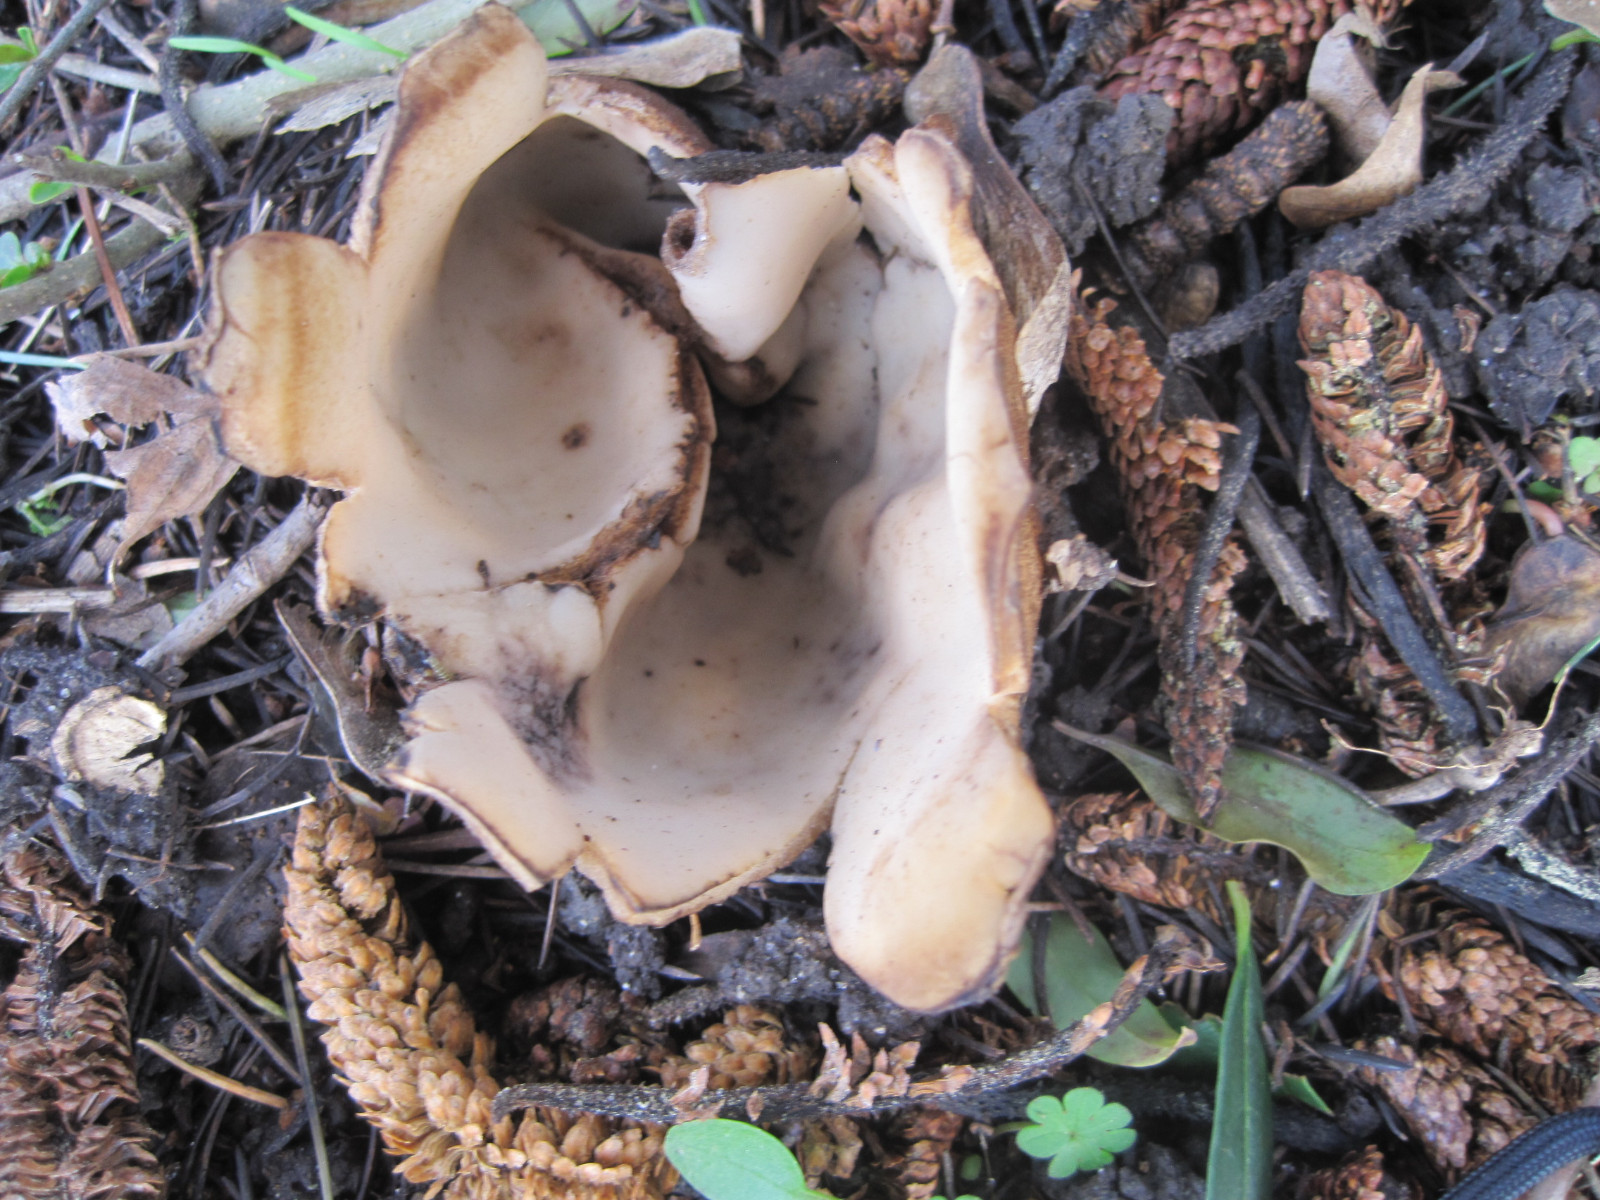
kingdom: Fungi
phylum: Ascomycota
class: Pezizomycetes
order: Pezizales
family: Pyronemataceae
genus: Geopora
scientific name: Geopora sumneriana
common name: vår-jordbæger
